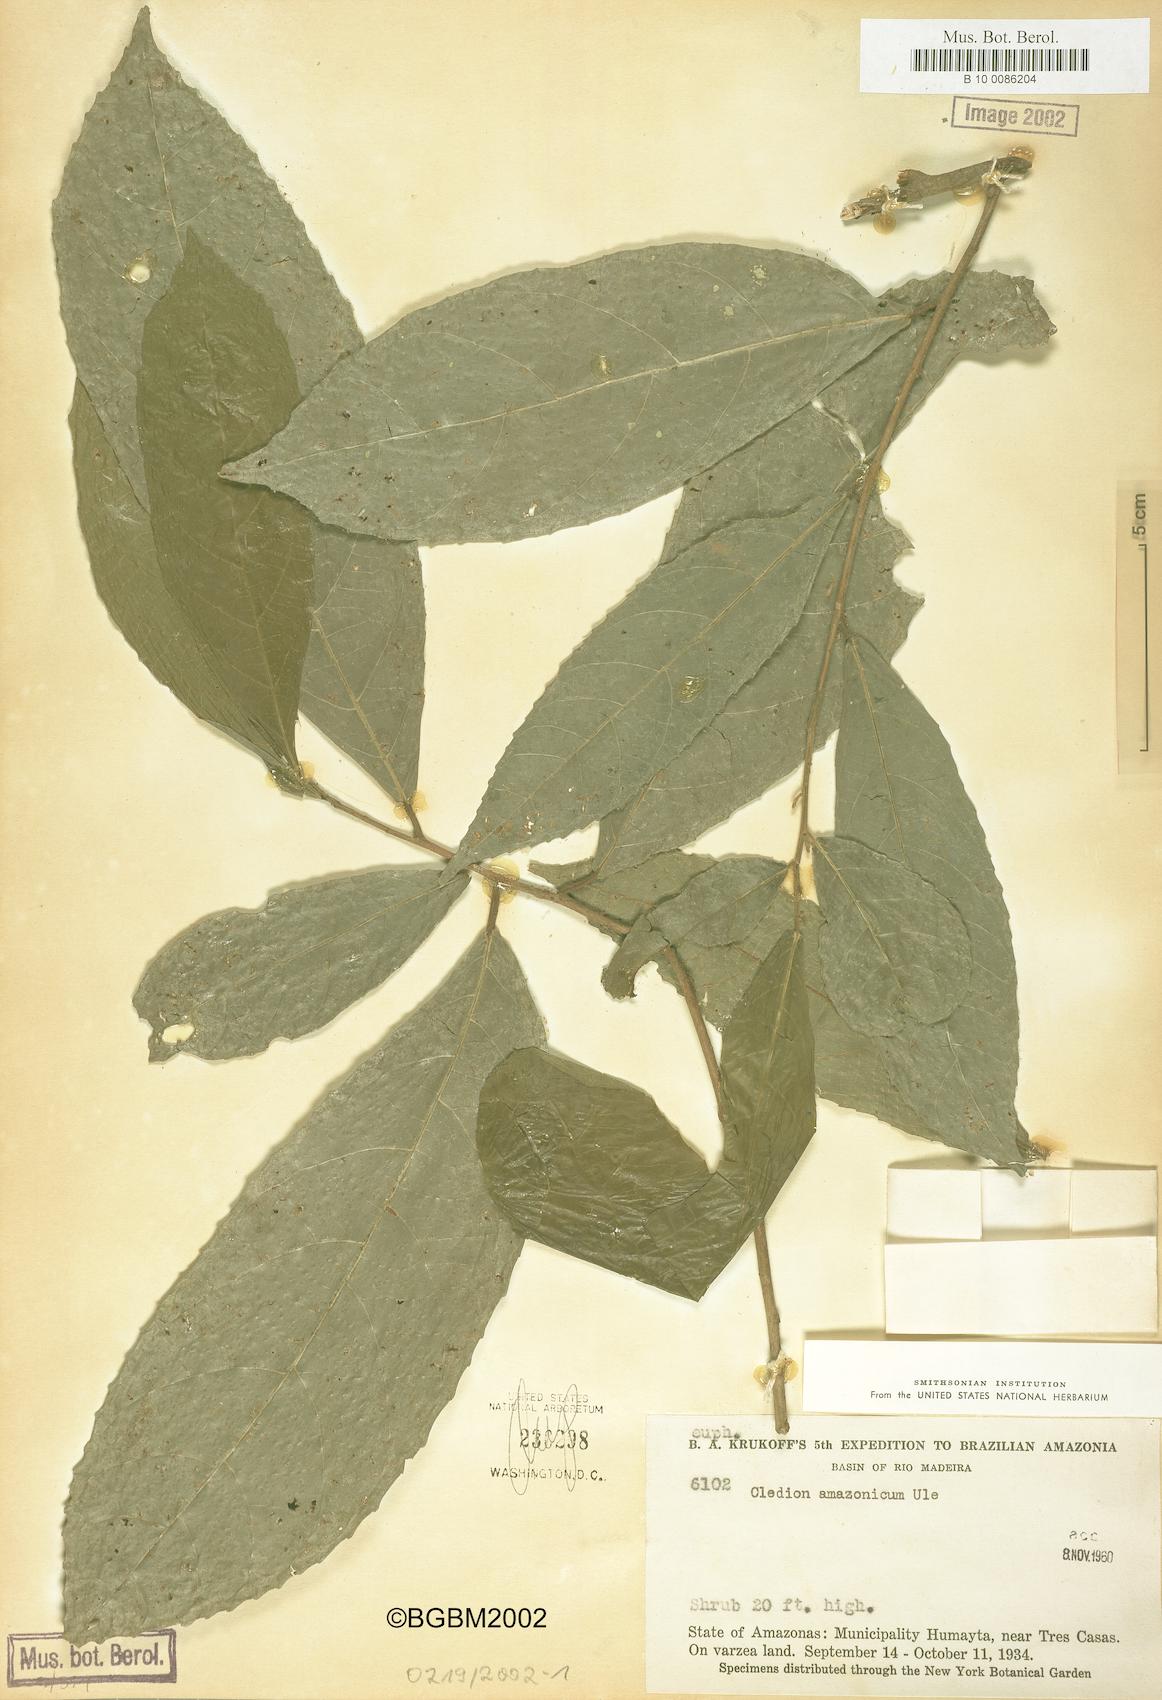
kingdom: Plantae
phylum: Tracheophyta
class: Magnoliopsida
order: Malpighiales
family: Euphorbiaceae
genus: Cleidion
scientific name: Cleidion amazonicum
